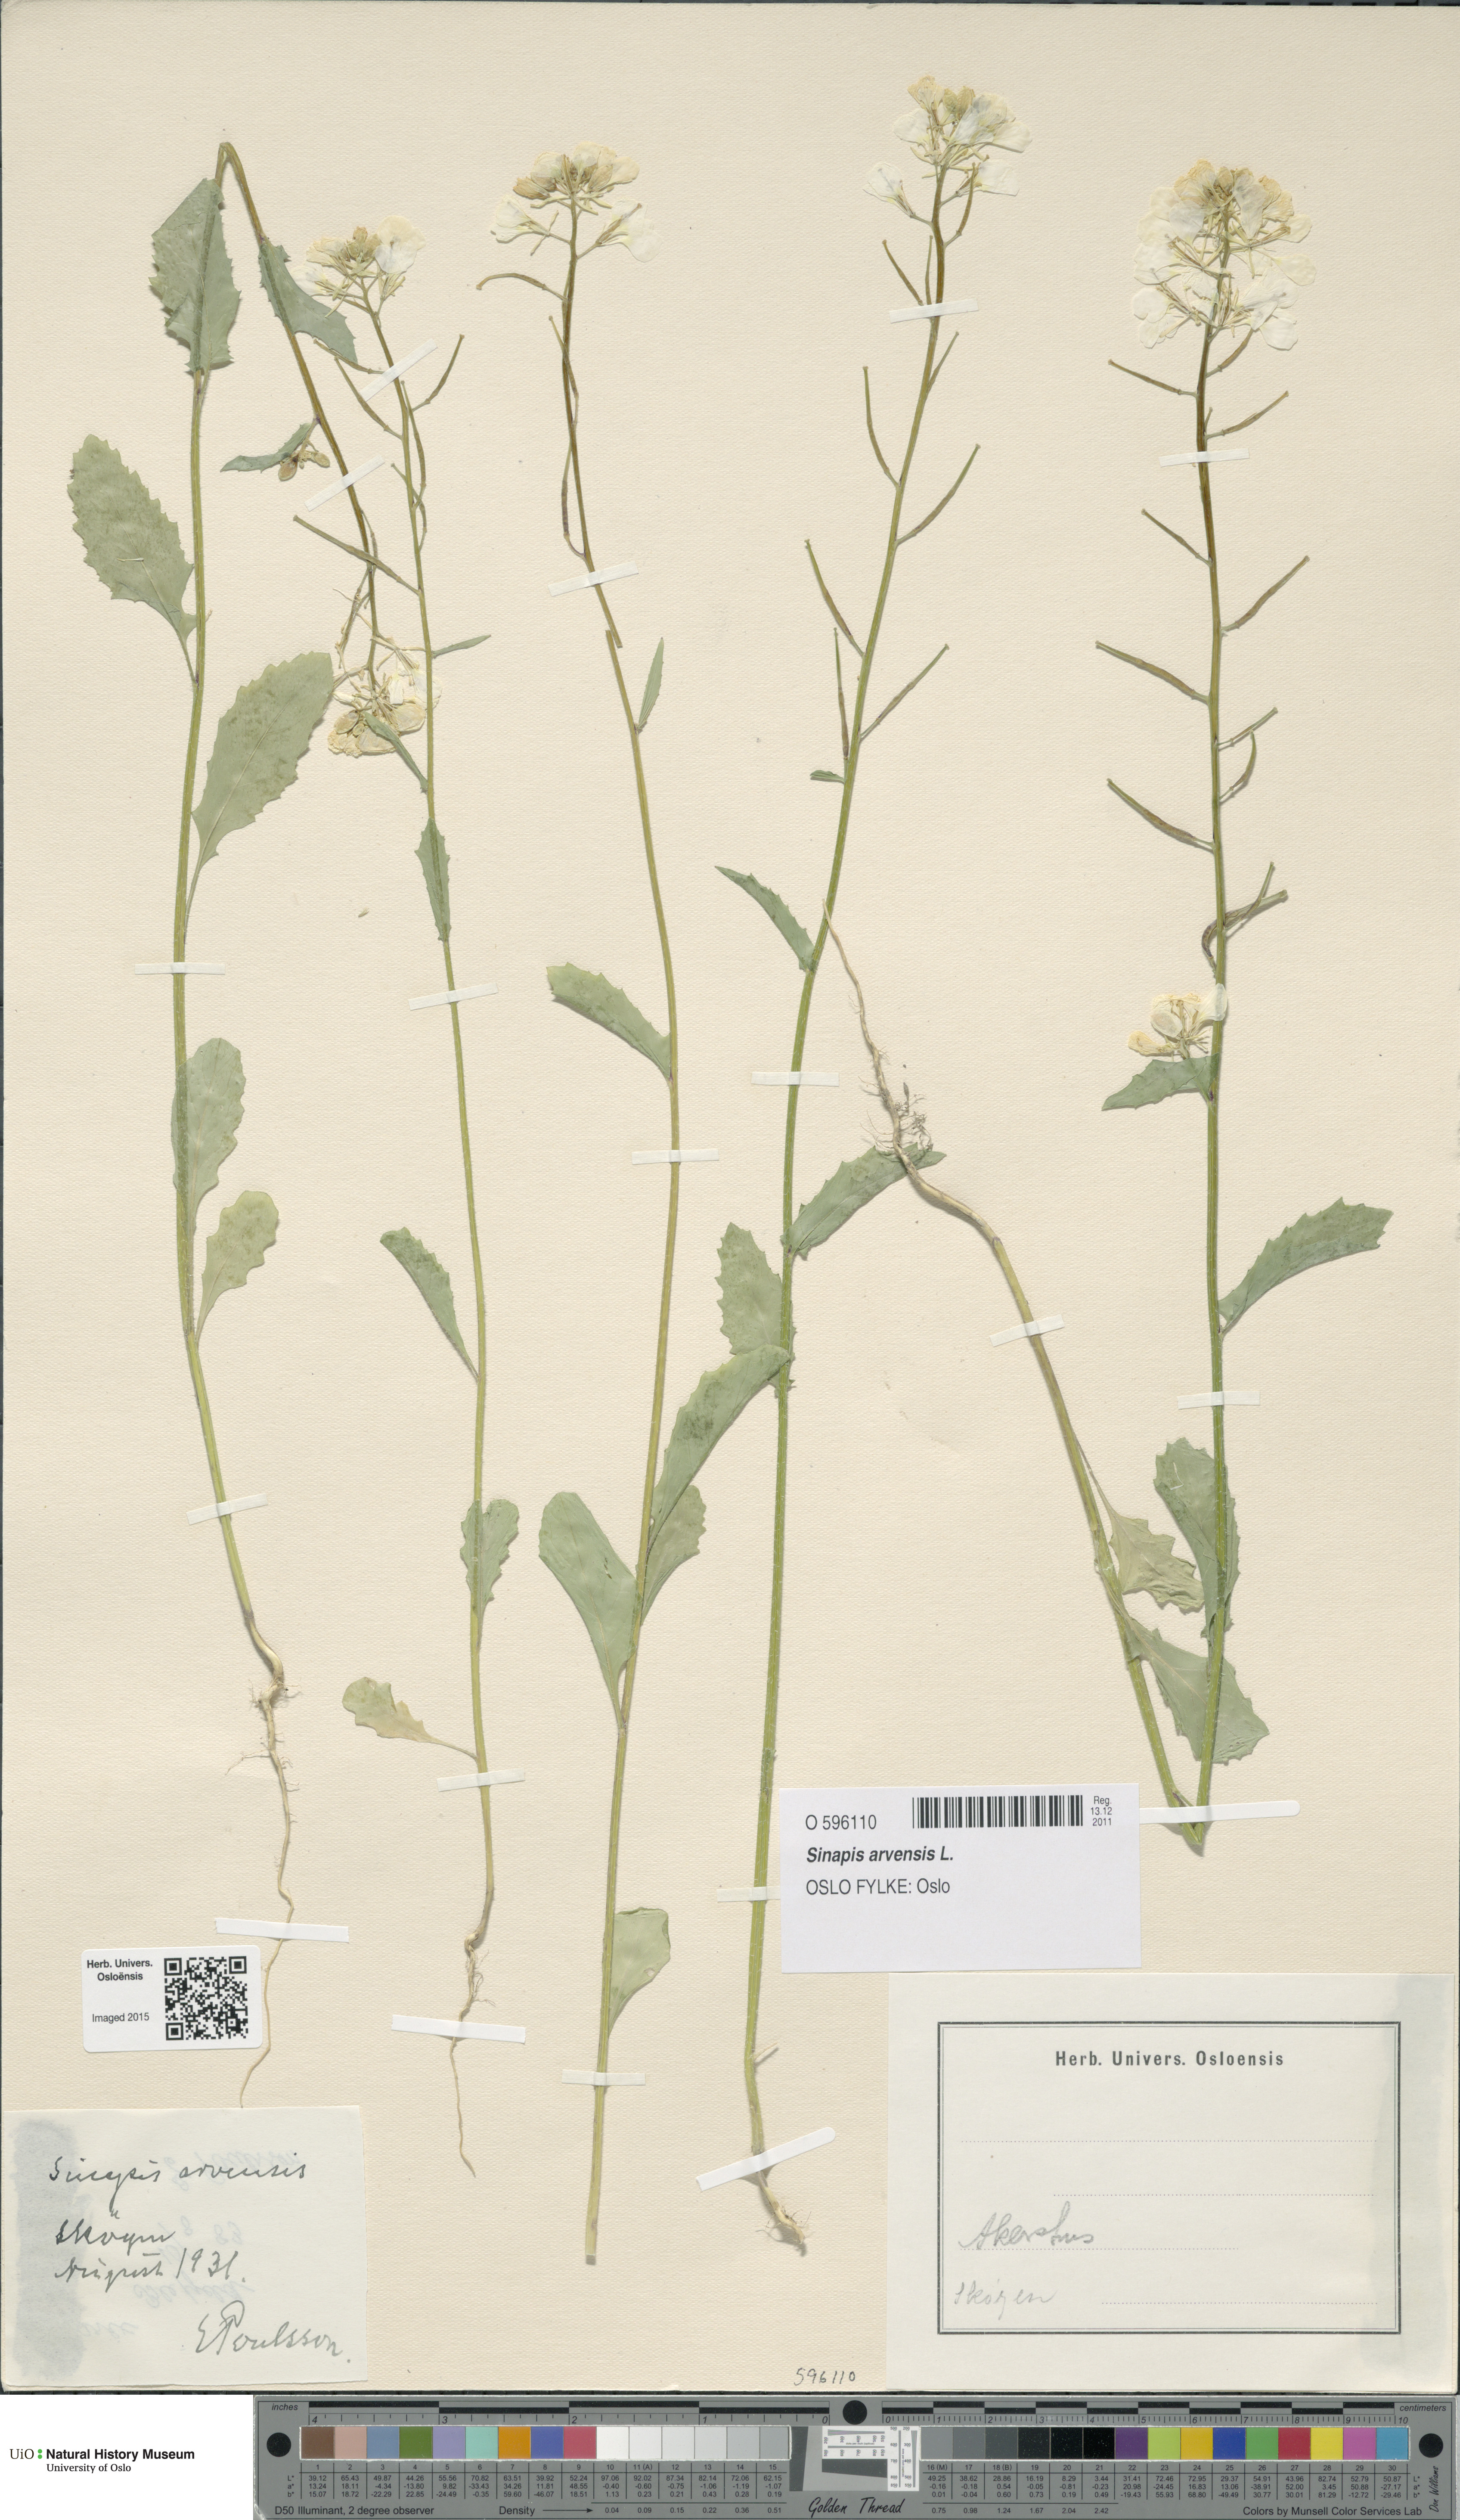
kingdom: Plantae
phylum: Tracheophyta
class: Magnoliopsida
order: Brassicales
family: Brassicaceae
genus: Sinapis
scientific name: Sinapis arvensis
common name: Charlock
